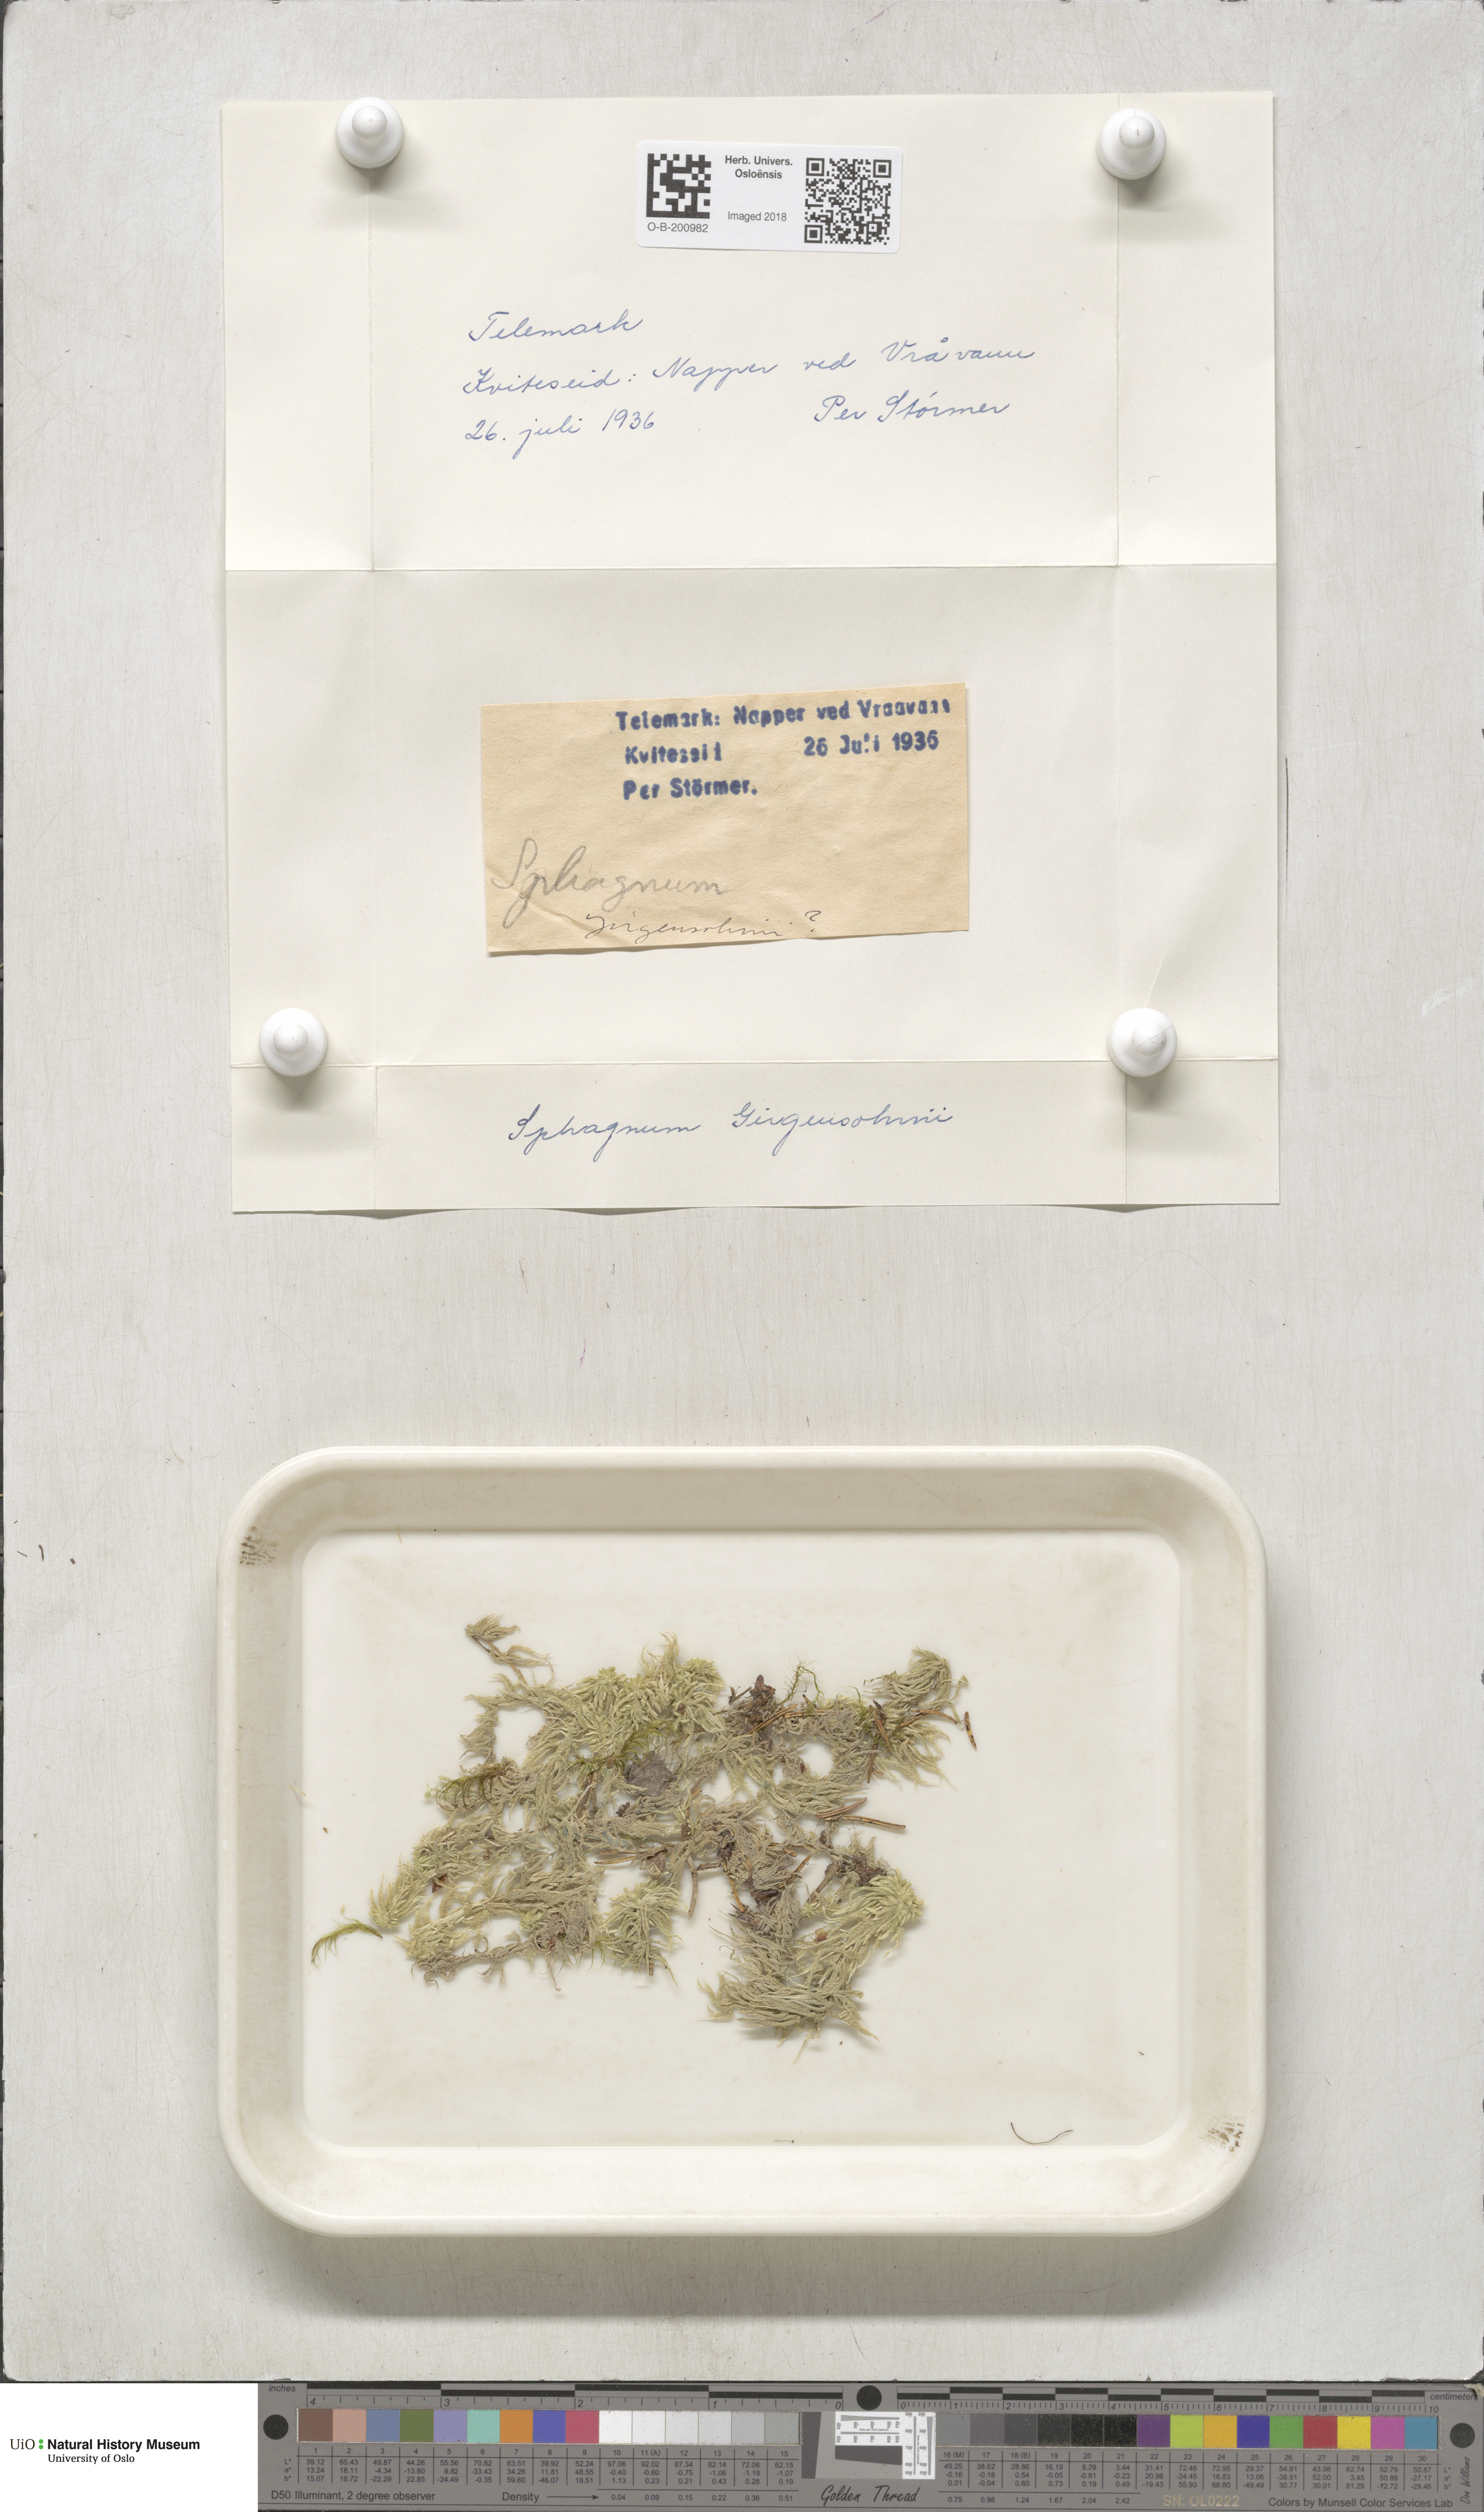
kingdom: Plantae
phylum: Bryophyta
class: Sphagnopsida
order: Sphagnales
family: Sphagnaceae
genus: Sphagnum
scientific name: Sphagnum girgensohnii
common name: Girgensohn's peat moss
